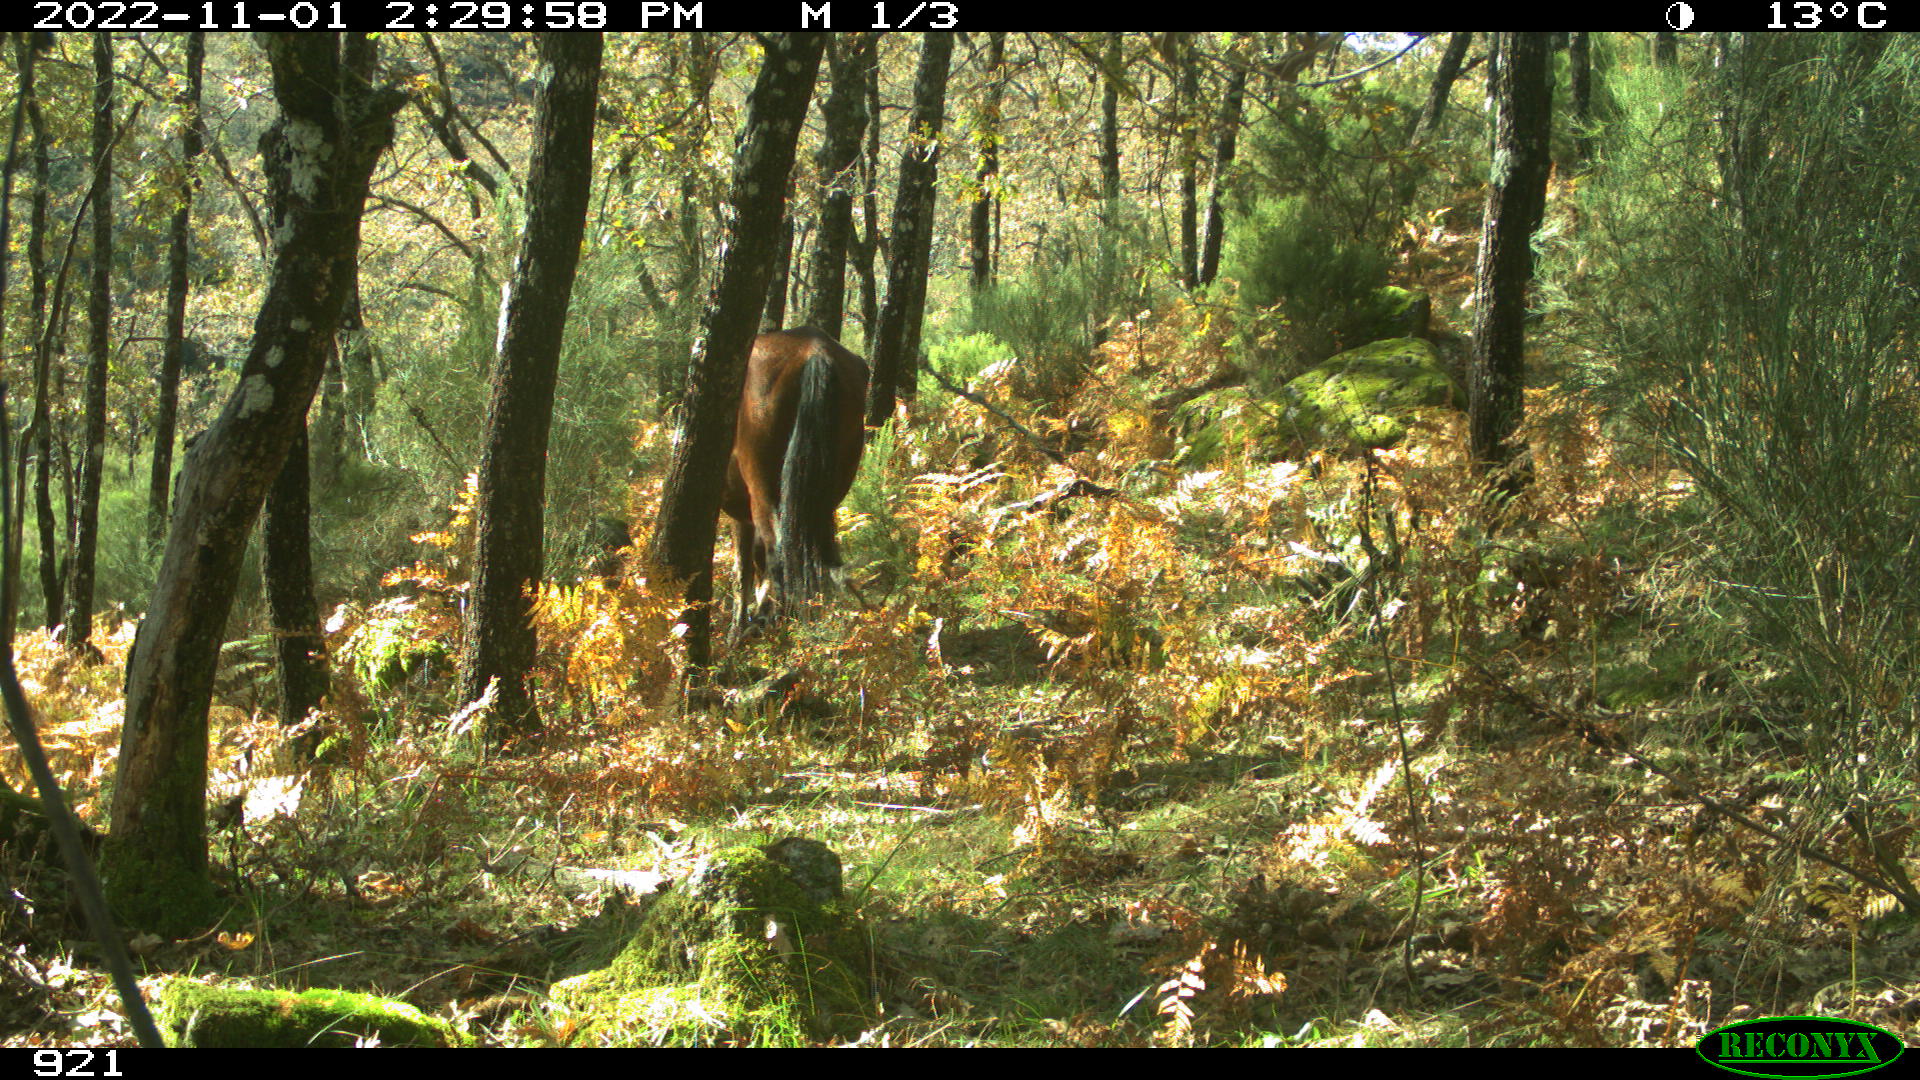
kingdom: Animalia
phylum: Chordata
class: Mammalia
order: Perissodactyla
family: Equidae
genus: Equus
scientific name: Equus caballus
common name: Horse
